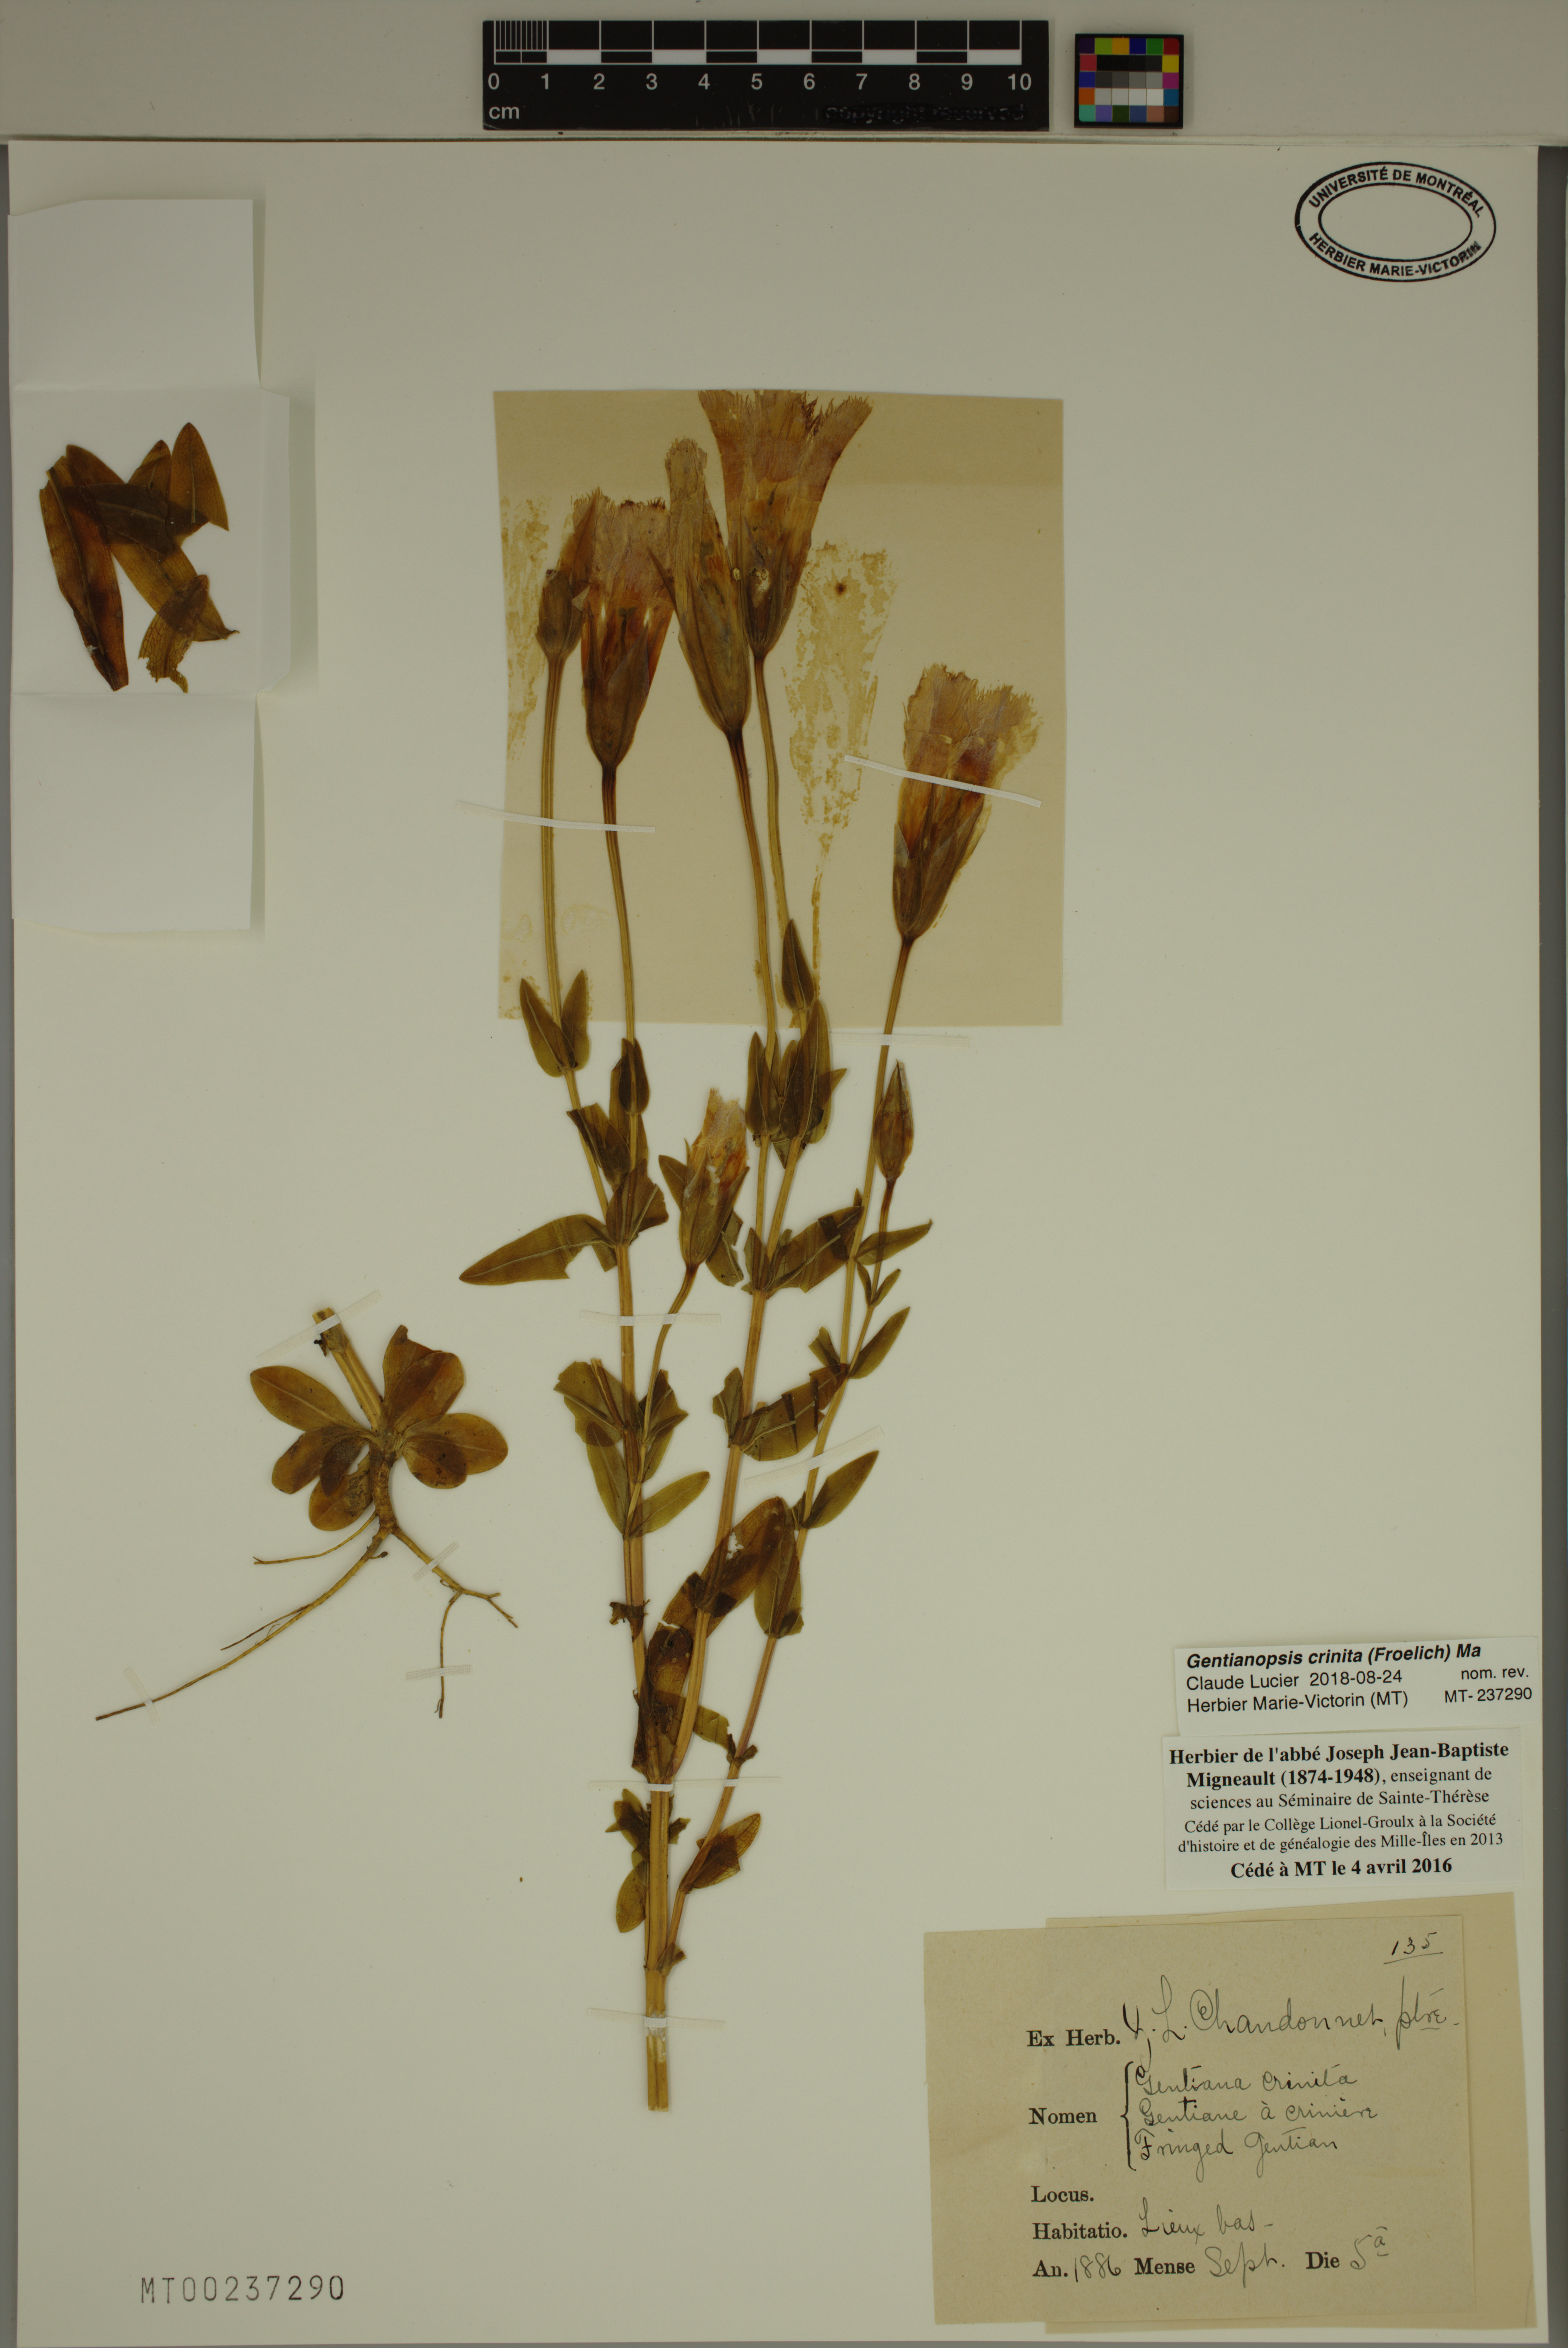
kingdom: Plantae
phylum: Tracheophyta
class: Magnoliopsida
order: Gentianales
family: Gentianaceae
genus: Gentianopsis
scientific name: Gentianopsis crinita
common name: Fringed-gentian
